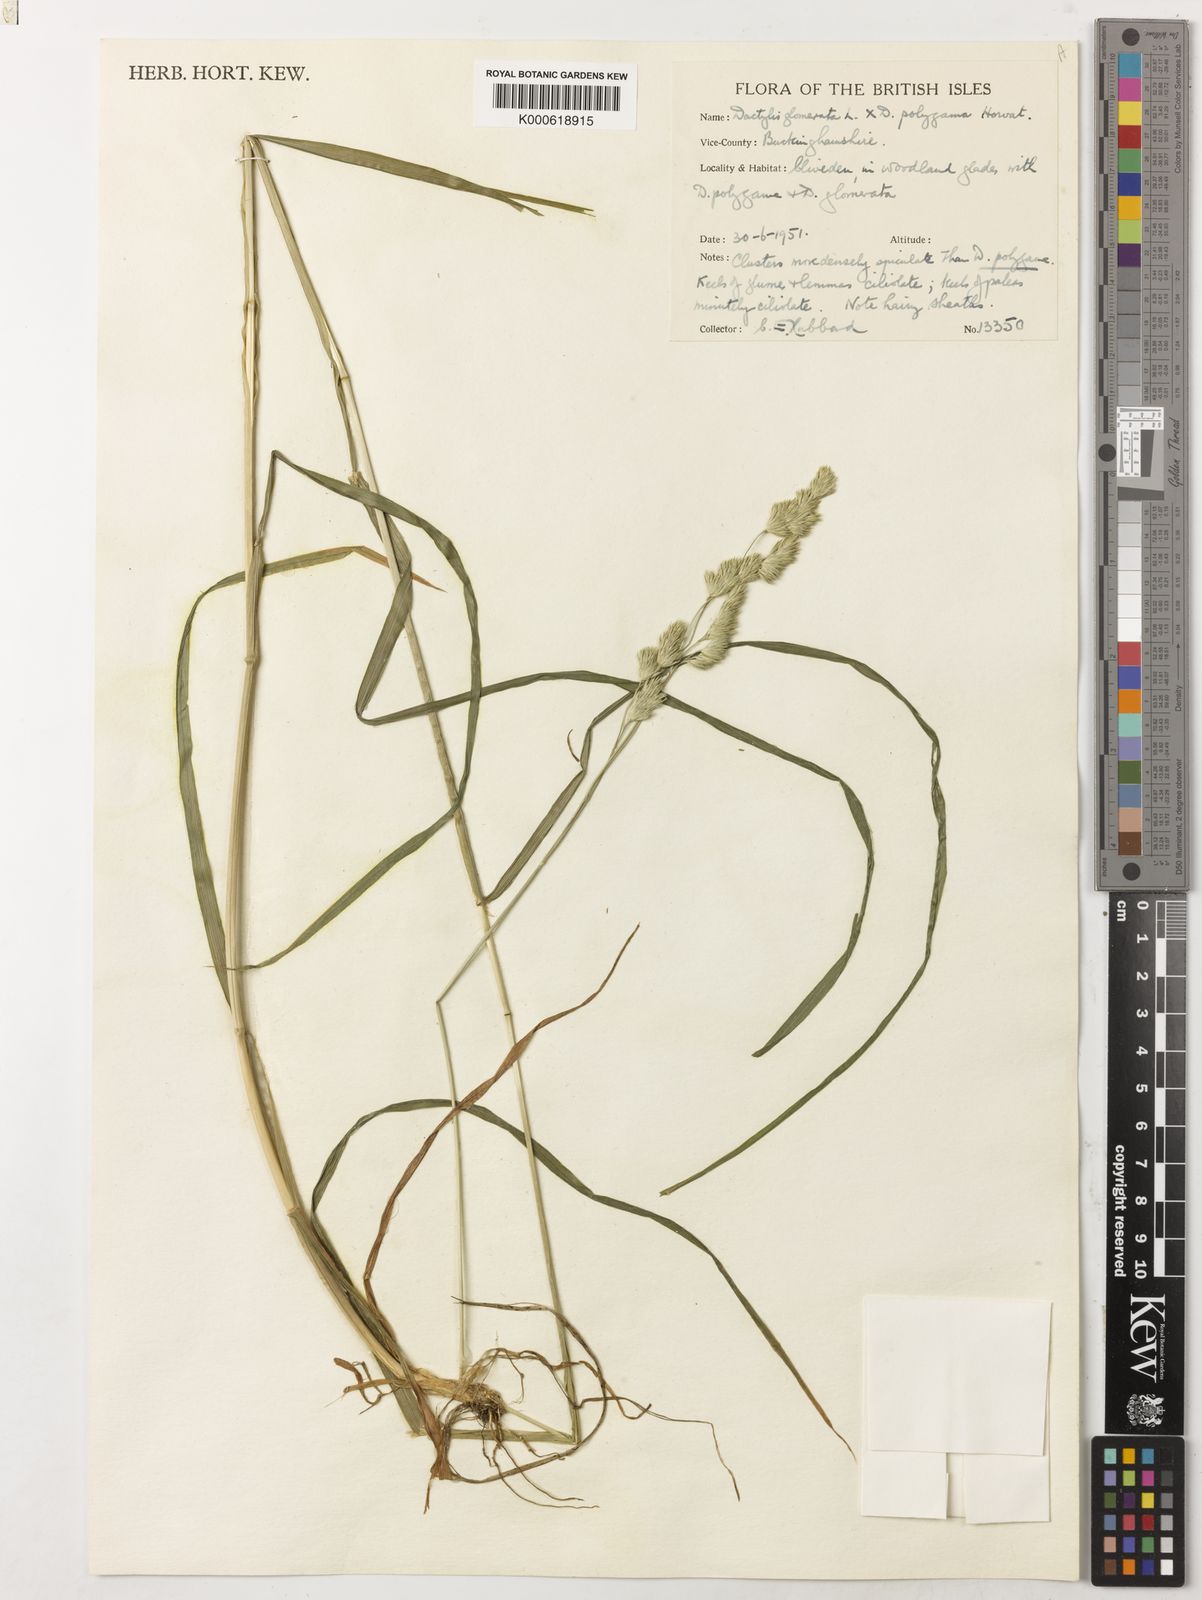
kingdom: Plantae
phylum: Tracheophyta
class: Liliopsida
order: Poales
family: Poaceae
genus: Dactylis
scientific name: Dactylis
